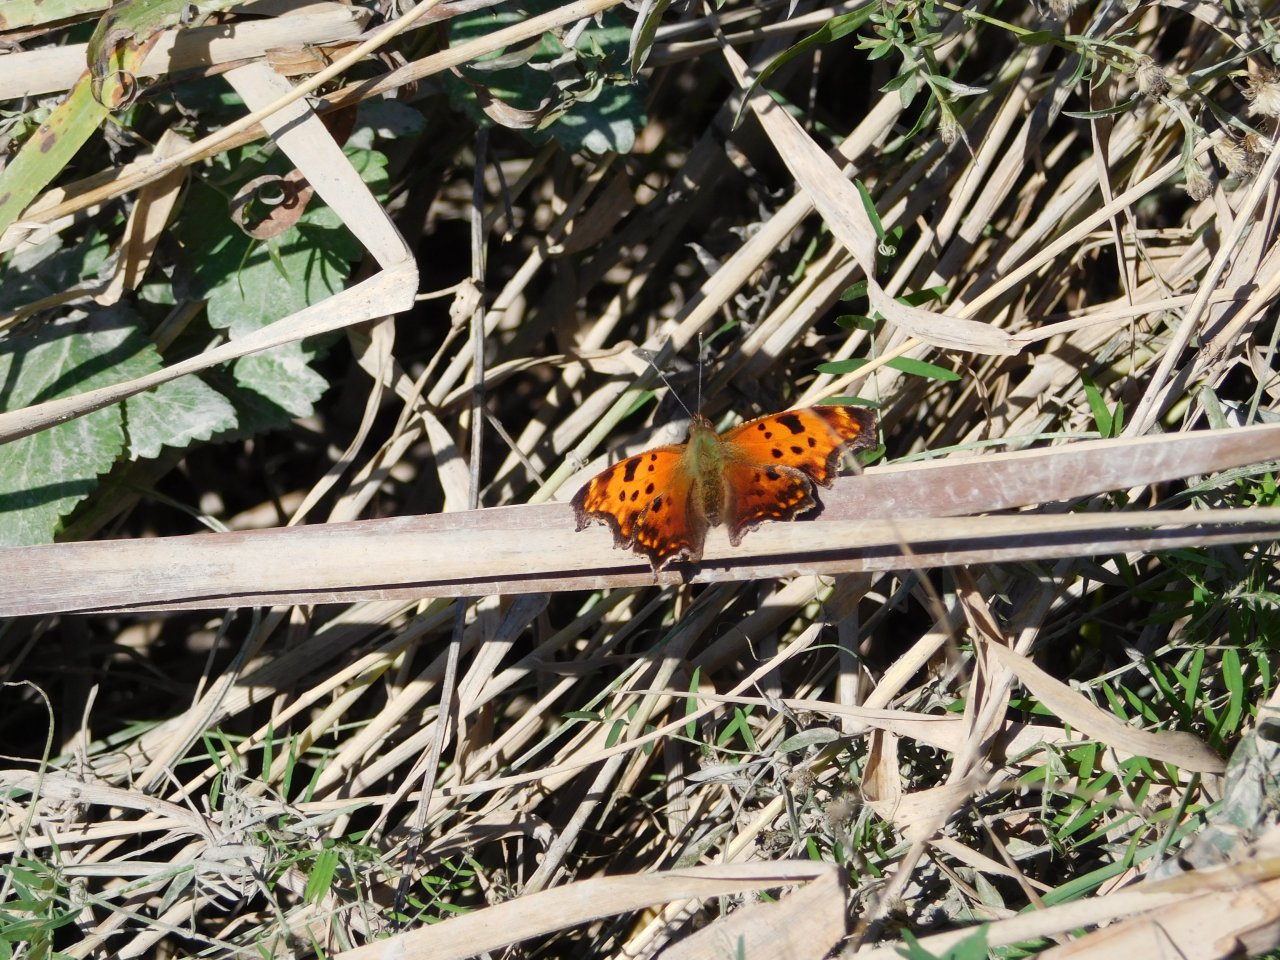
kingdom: Animalia
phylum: Arthropoda
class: Insecta
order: Lepidoptera
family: Nymphalidae
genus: Polygonia
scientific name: Polygonia comma
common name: Eastern Comma
